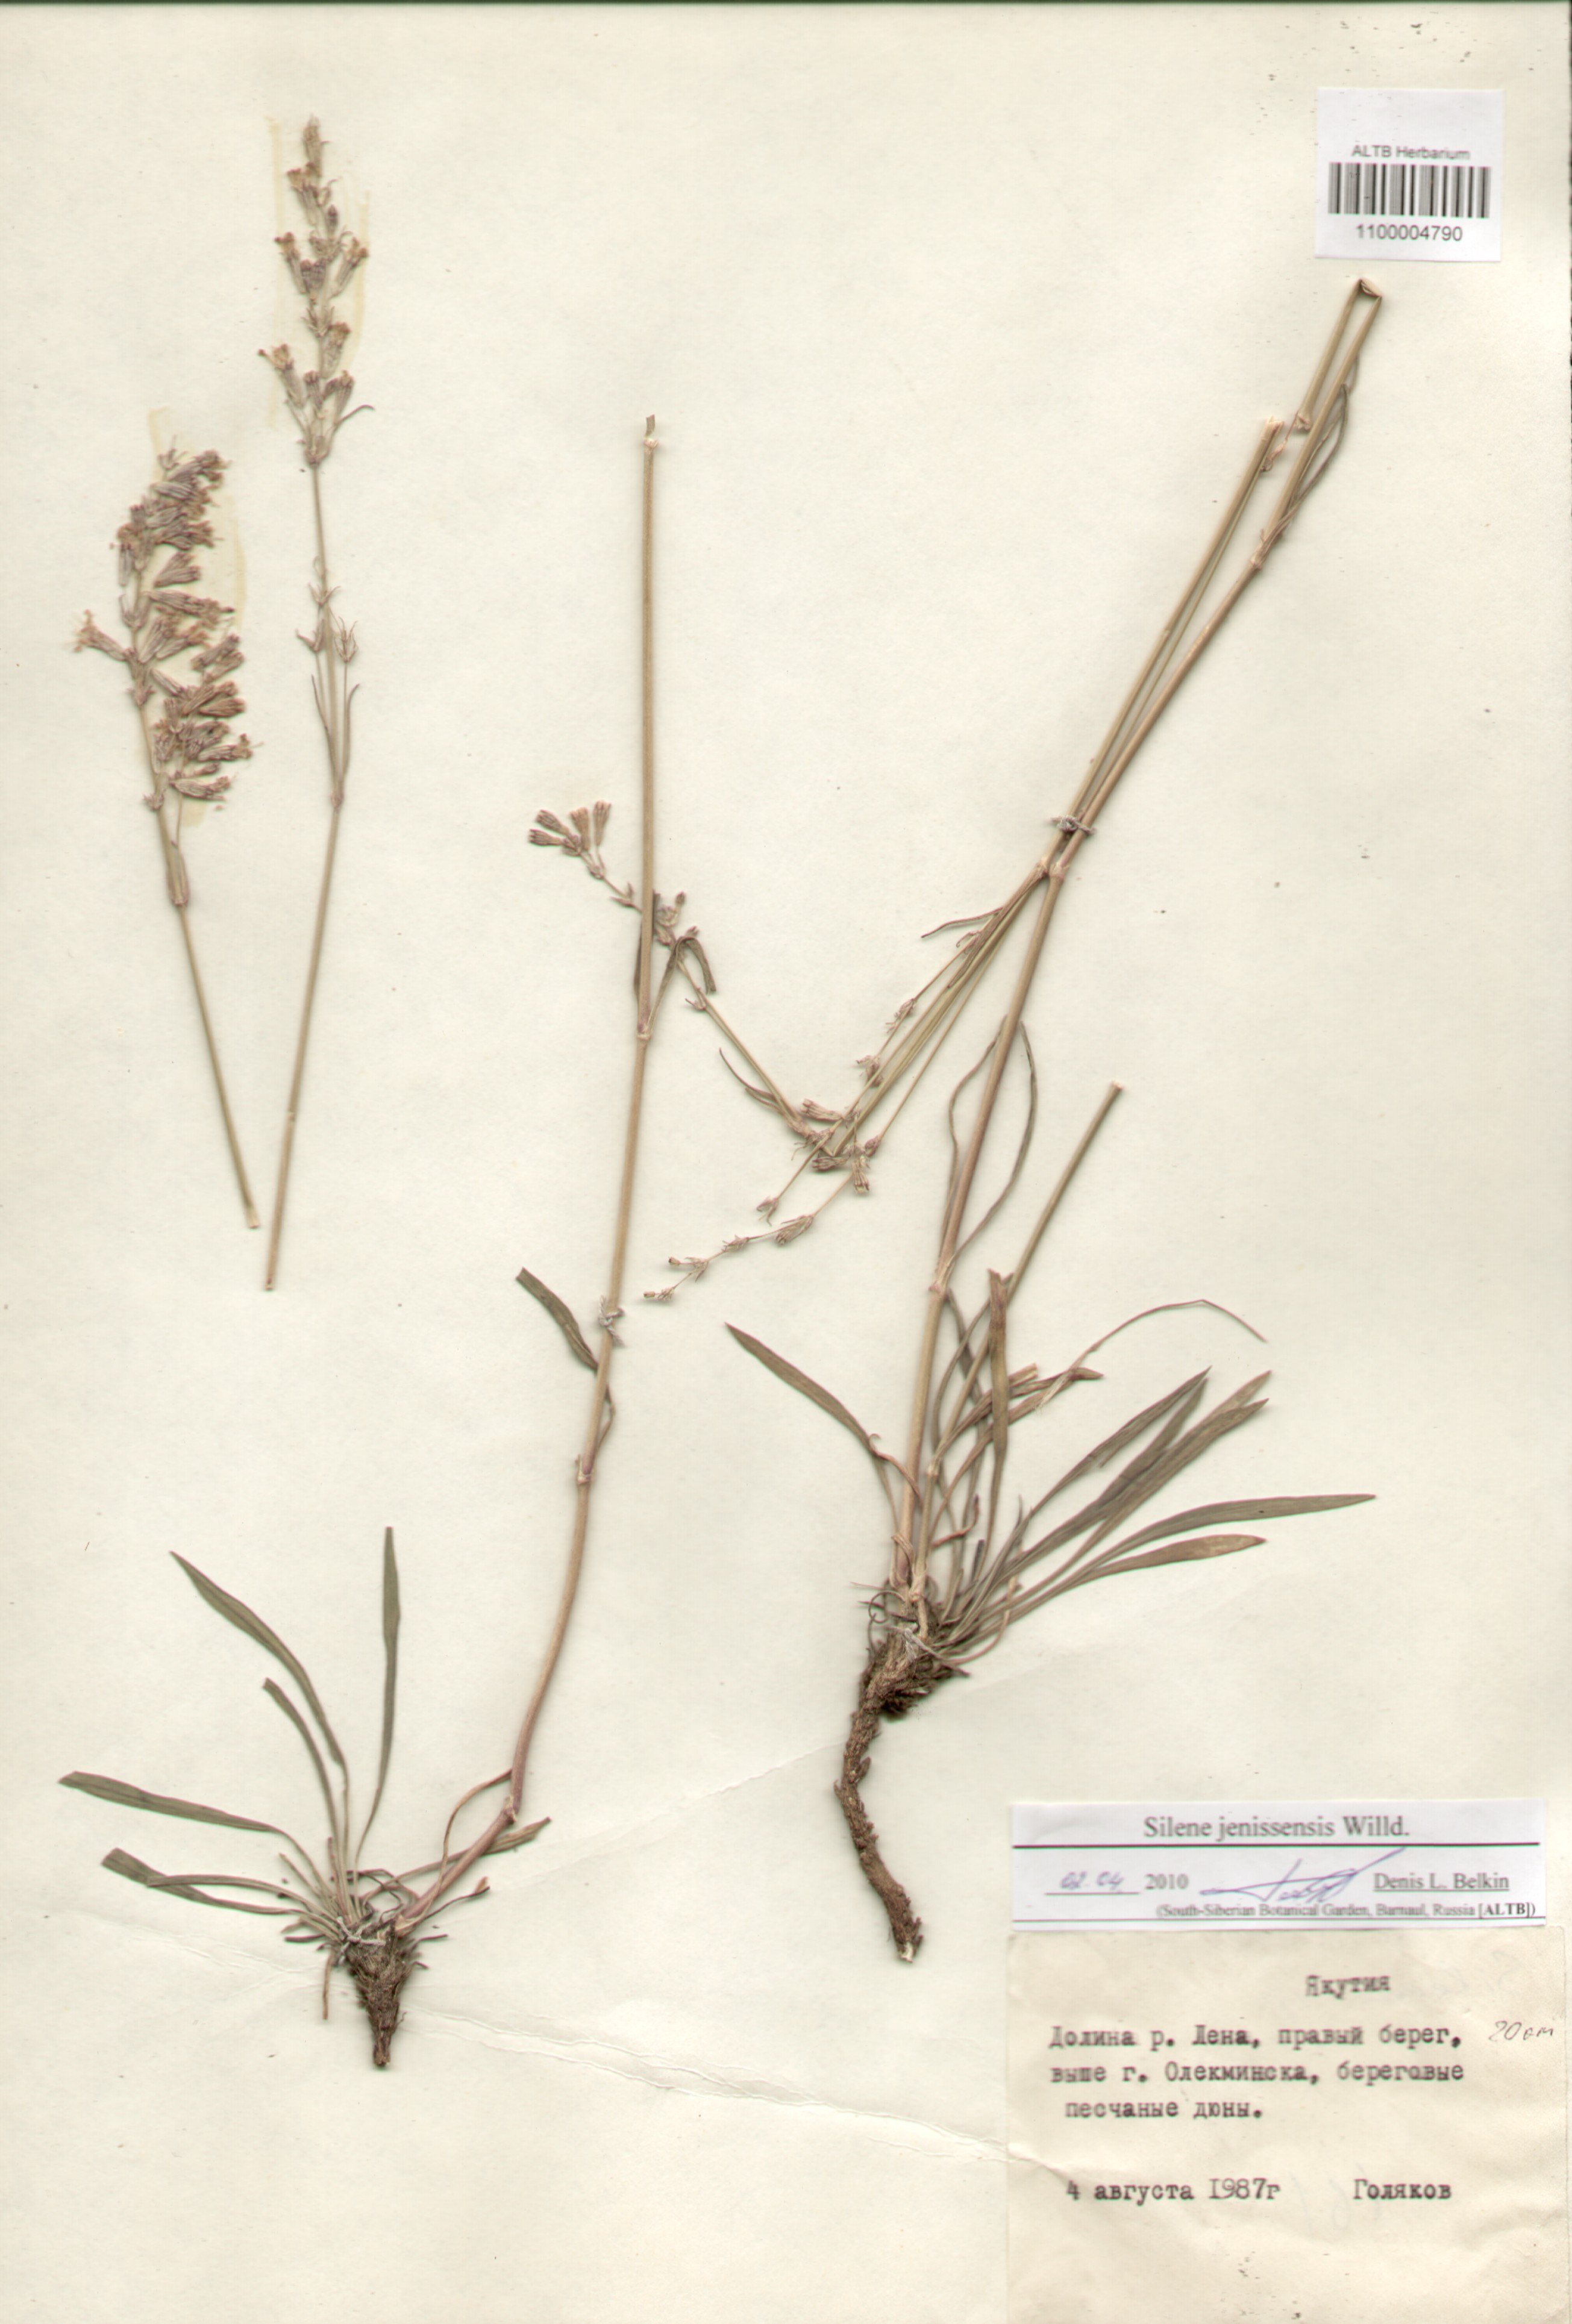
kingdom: Plantae
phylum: Tracheophyta
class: Magnoliopsida
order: Caryophyllales
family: Caryophyllaceae
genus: Silene
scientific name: Silene jeniseensis
